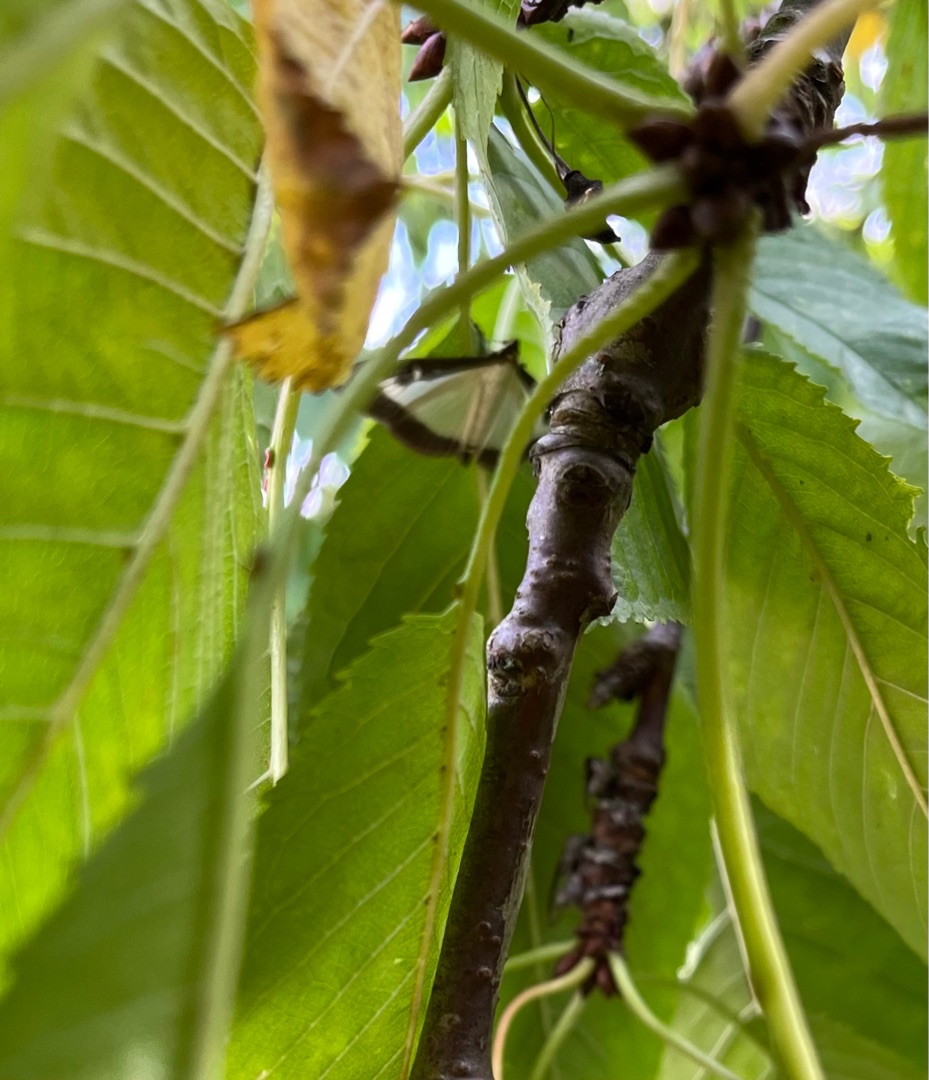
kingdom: Animalia
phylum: Arthropoda
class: Insecta
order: Lepidoptera
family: Crambidae
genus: Cydalima
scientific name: Cydalima perspectalis
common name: Buksbomhalvmøl
